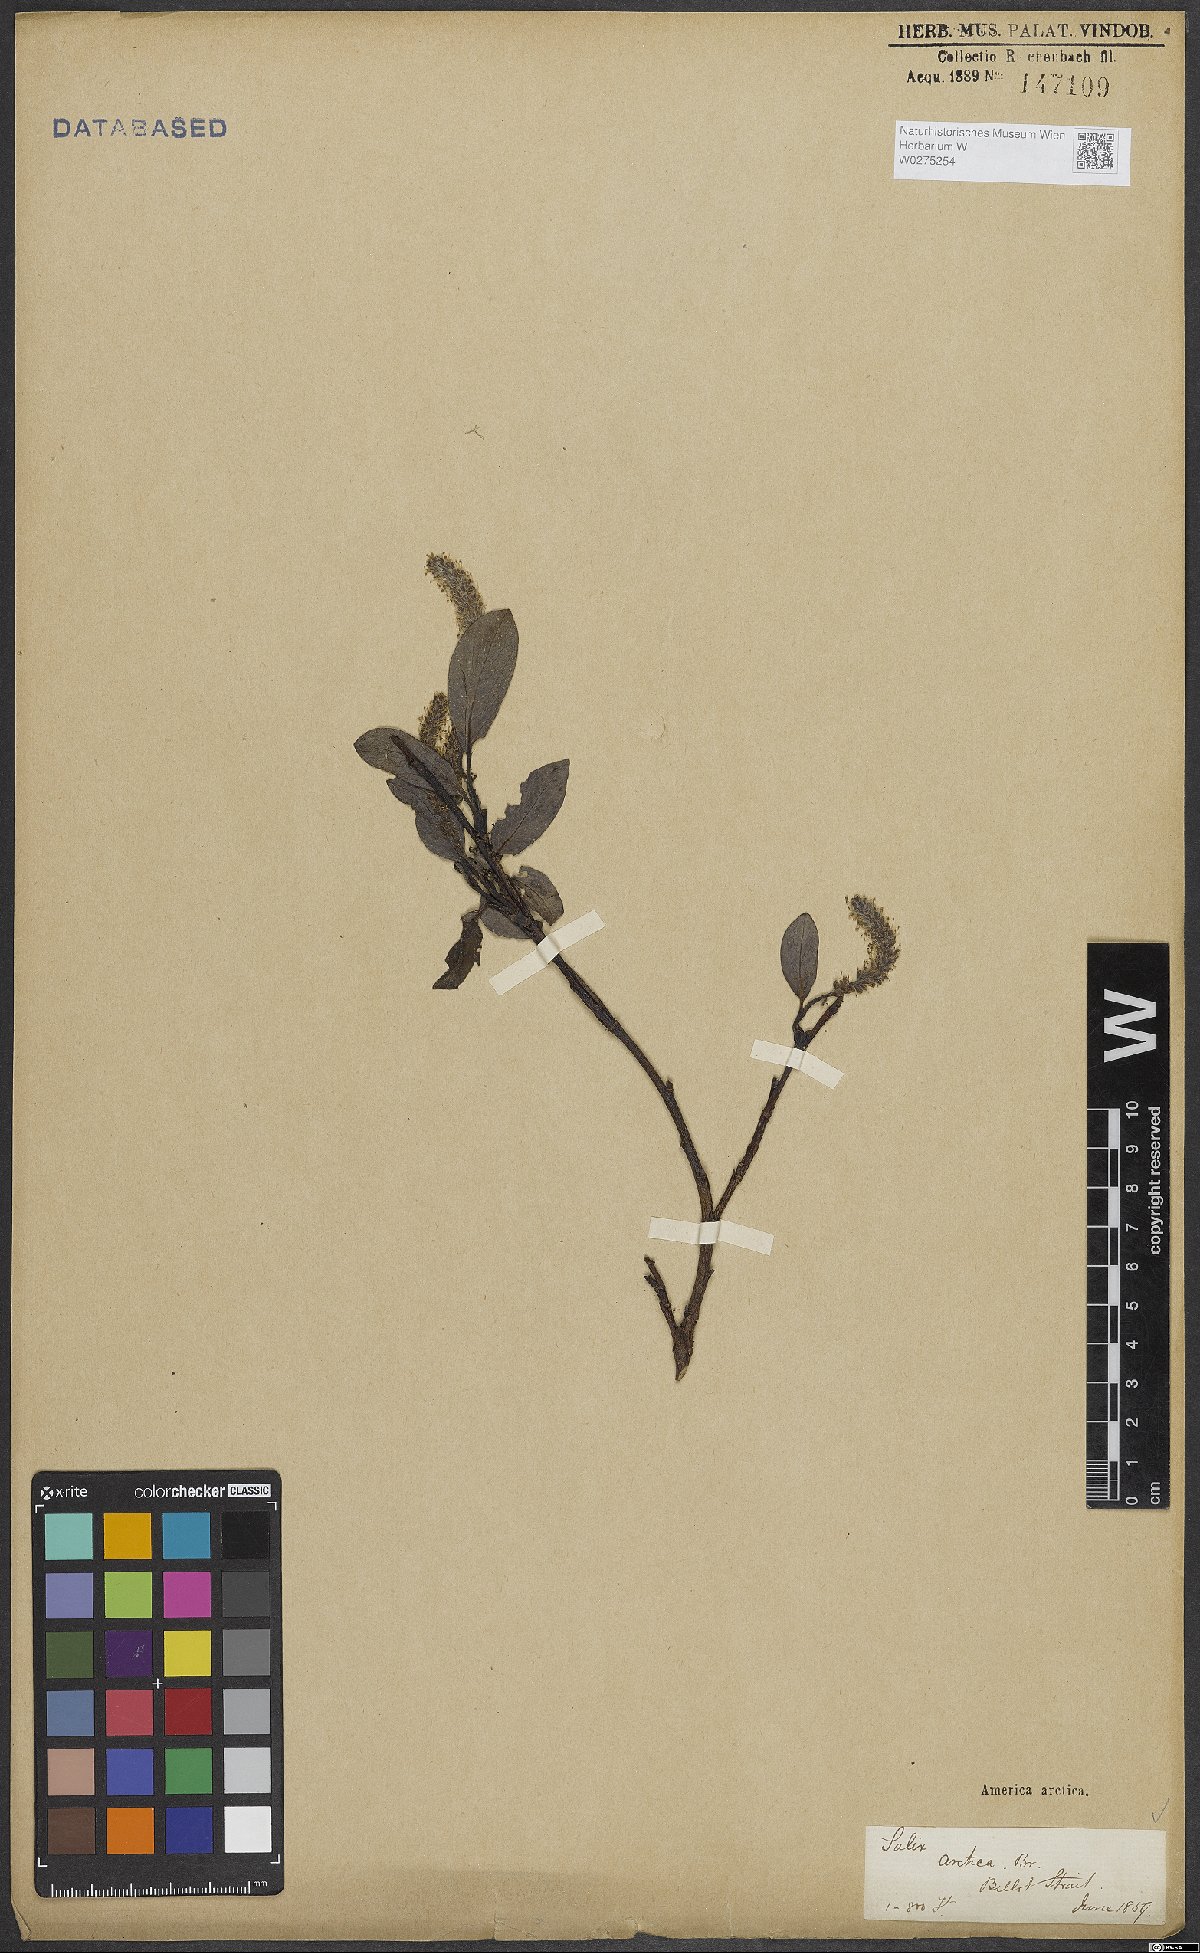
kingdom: Plantae
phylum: Tracheophyta
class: Magnoliopsida
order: Malpighiales
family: Salicaceae
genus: Salix
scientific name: Salix arctica
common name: Arctic willow
